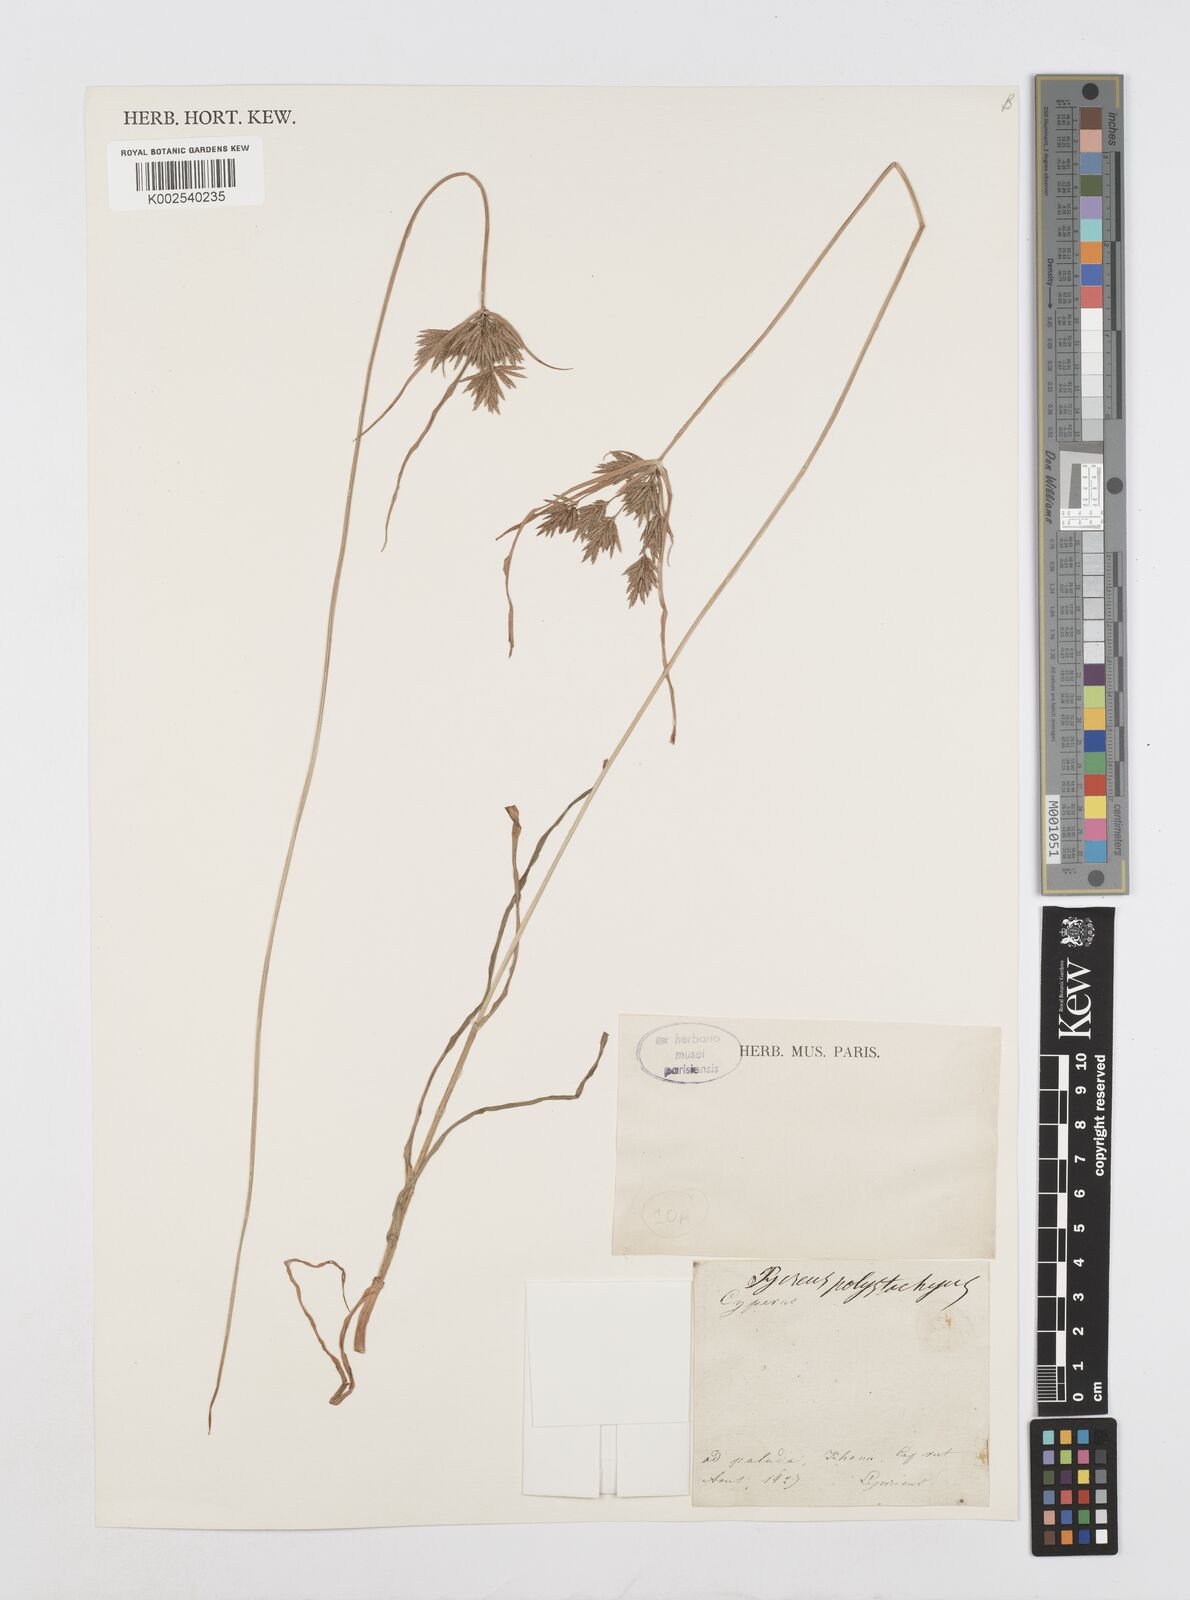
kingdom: Plantae
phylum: Tracheophyta
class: Liliopsida
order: Poales
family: Cyperaceae
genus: Cyperus
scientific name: Cyperus polystachyos
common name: Bunchy flat sedge
